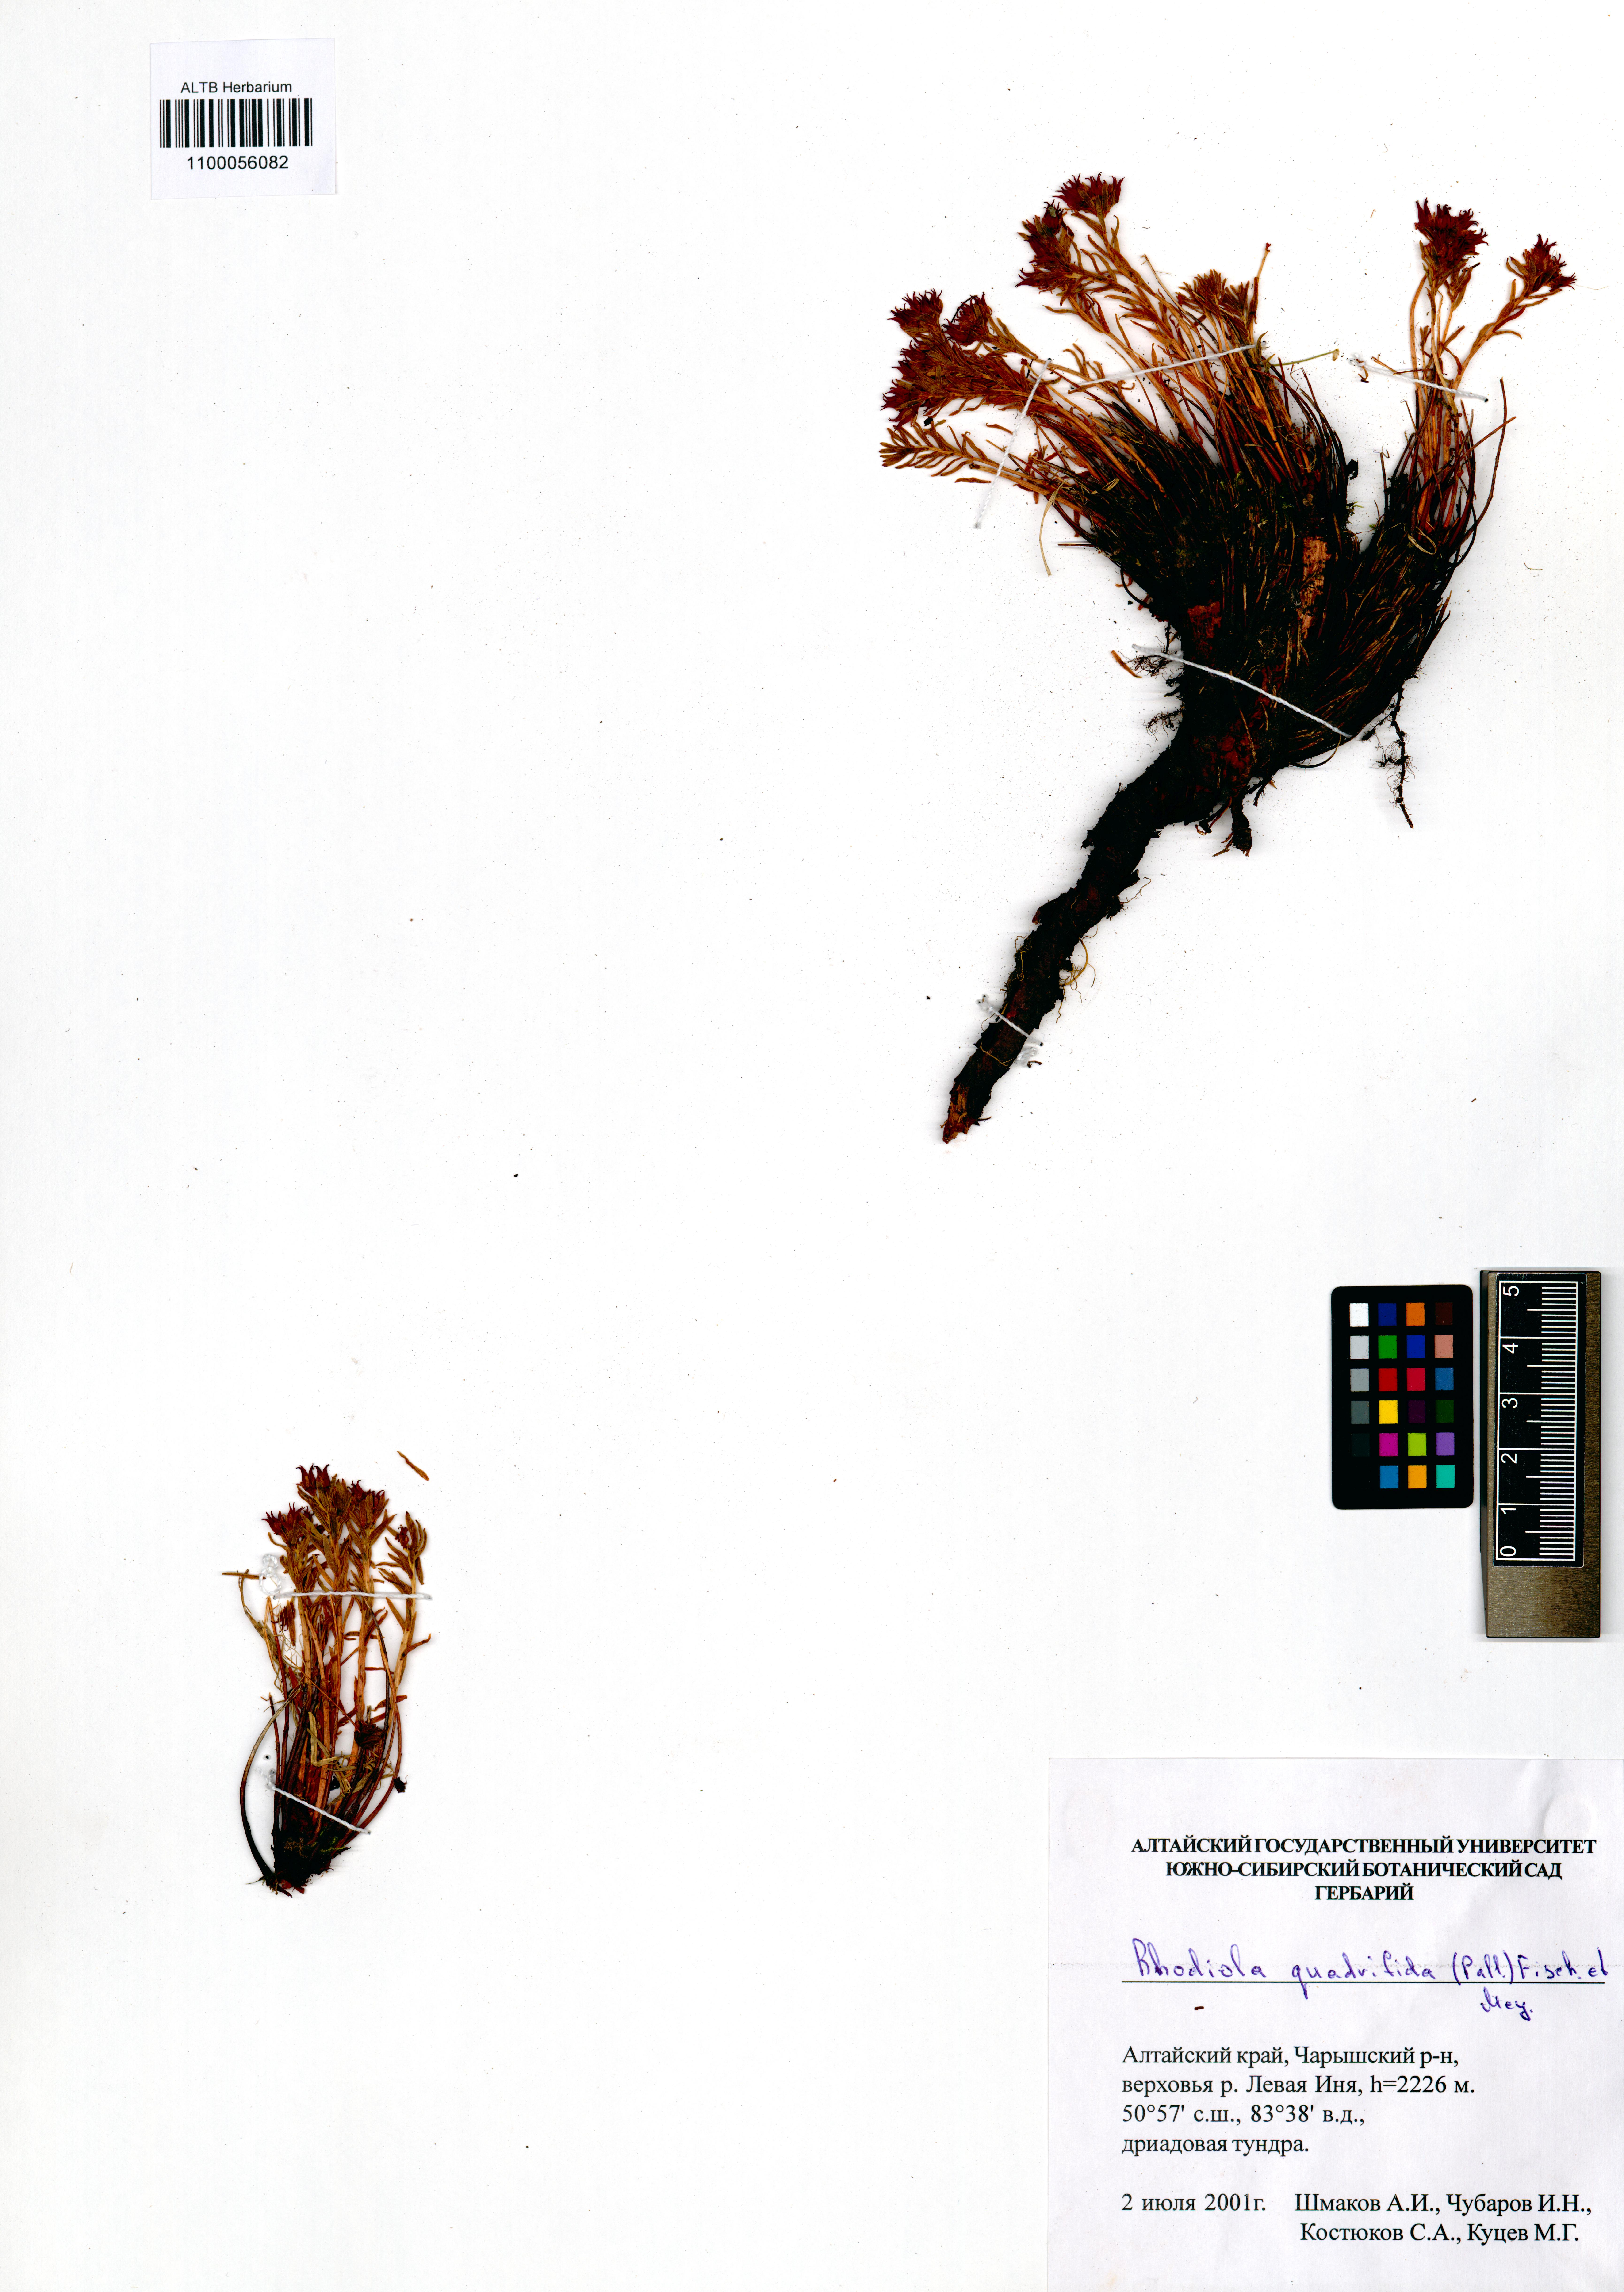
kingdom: Plantae
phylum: Tracheophyta
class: Magnoliopsida
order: Saxifragales
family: Crassulaceae
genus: Rhodiola
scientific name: Rhodiola quadrifida
